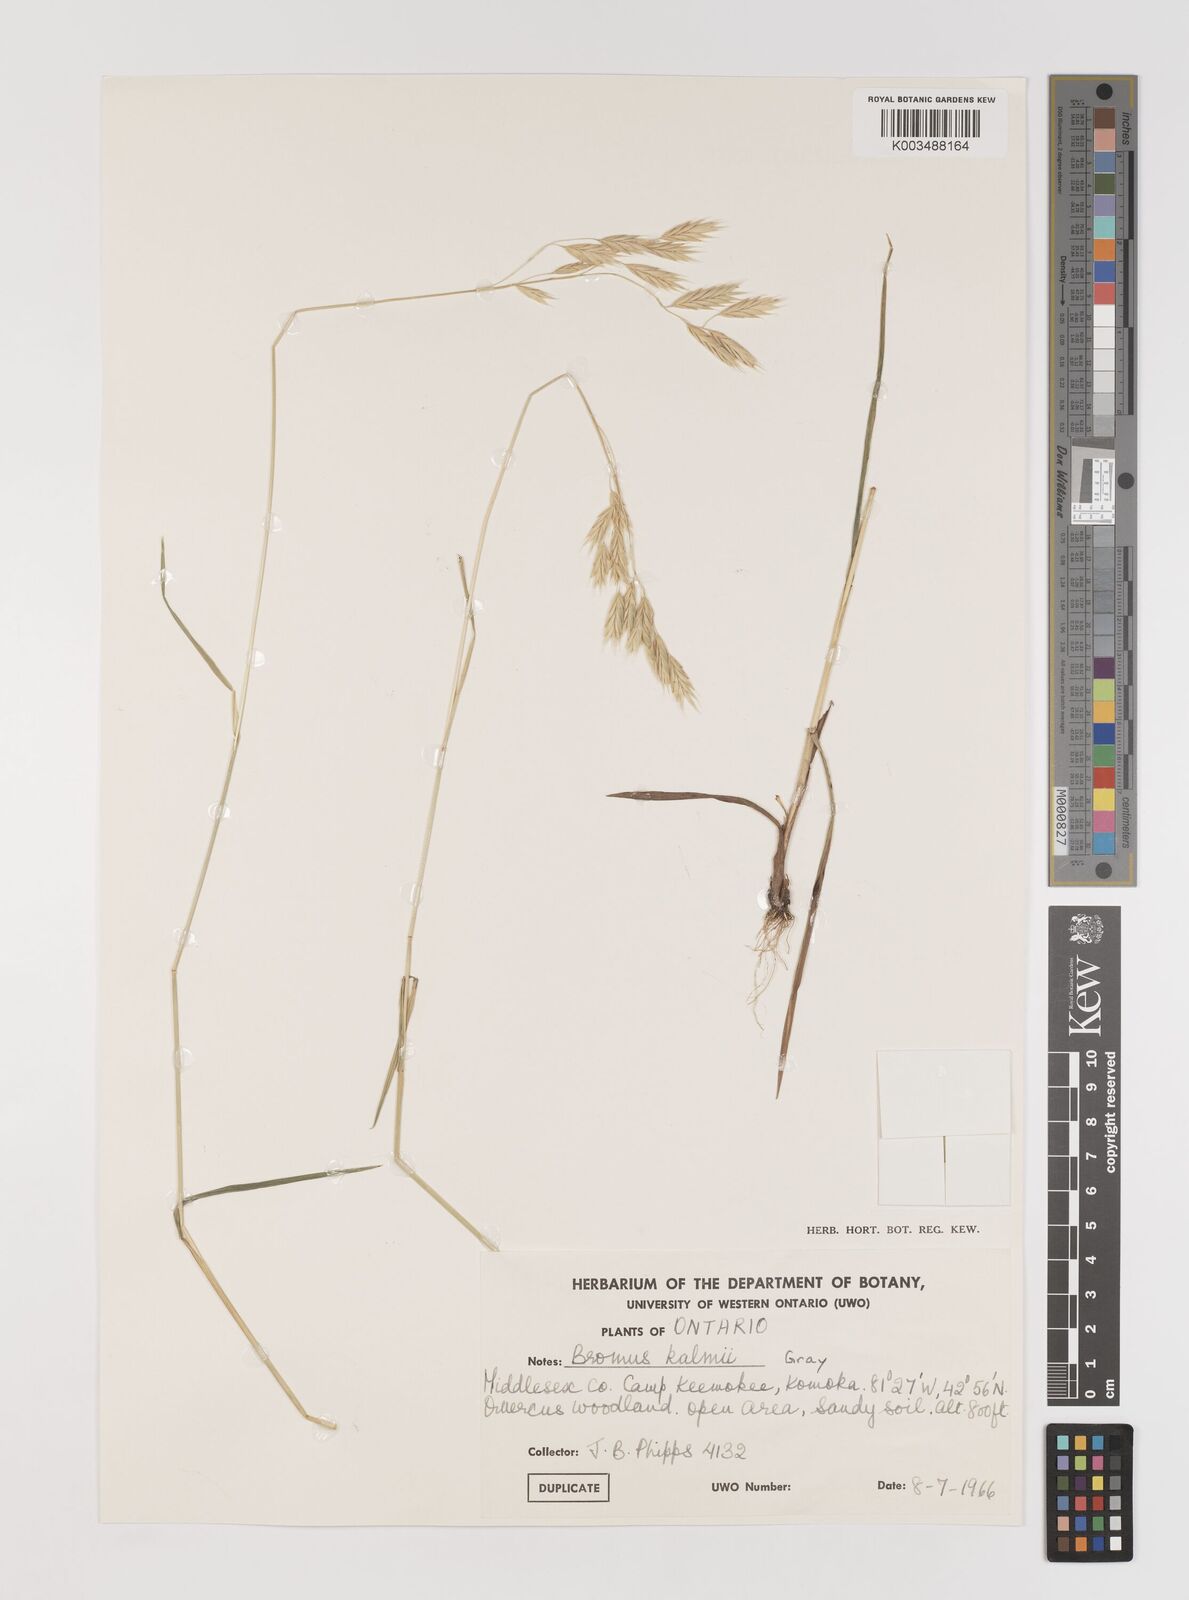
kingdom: Plantae
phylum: Tracheophyta
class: Liliopsida
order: Poales
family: Poaceae
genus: Bromus
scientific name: Bromus kalmii
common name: Kalm brome
